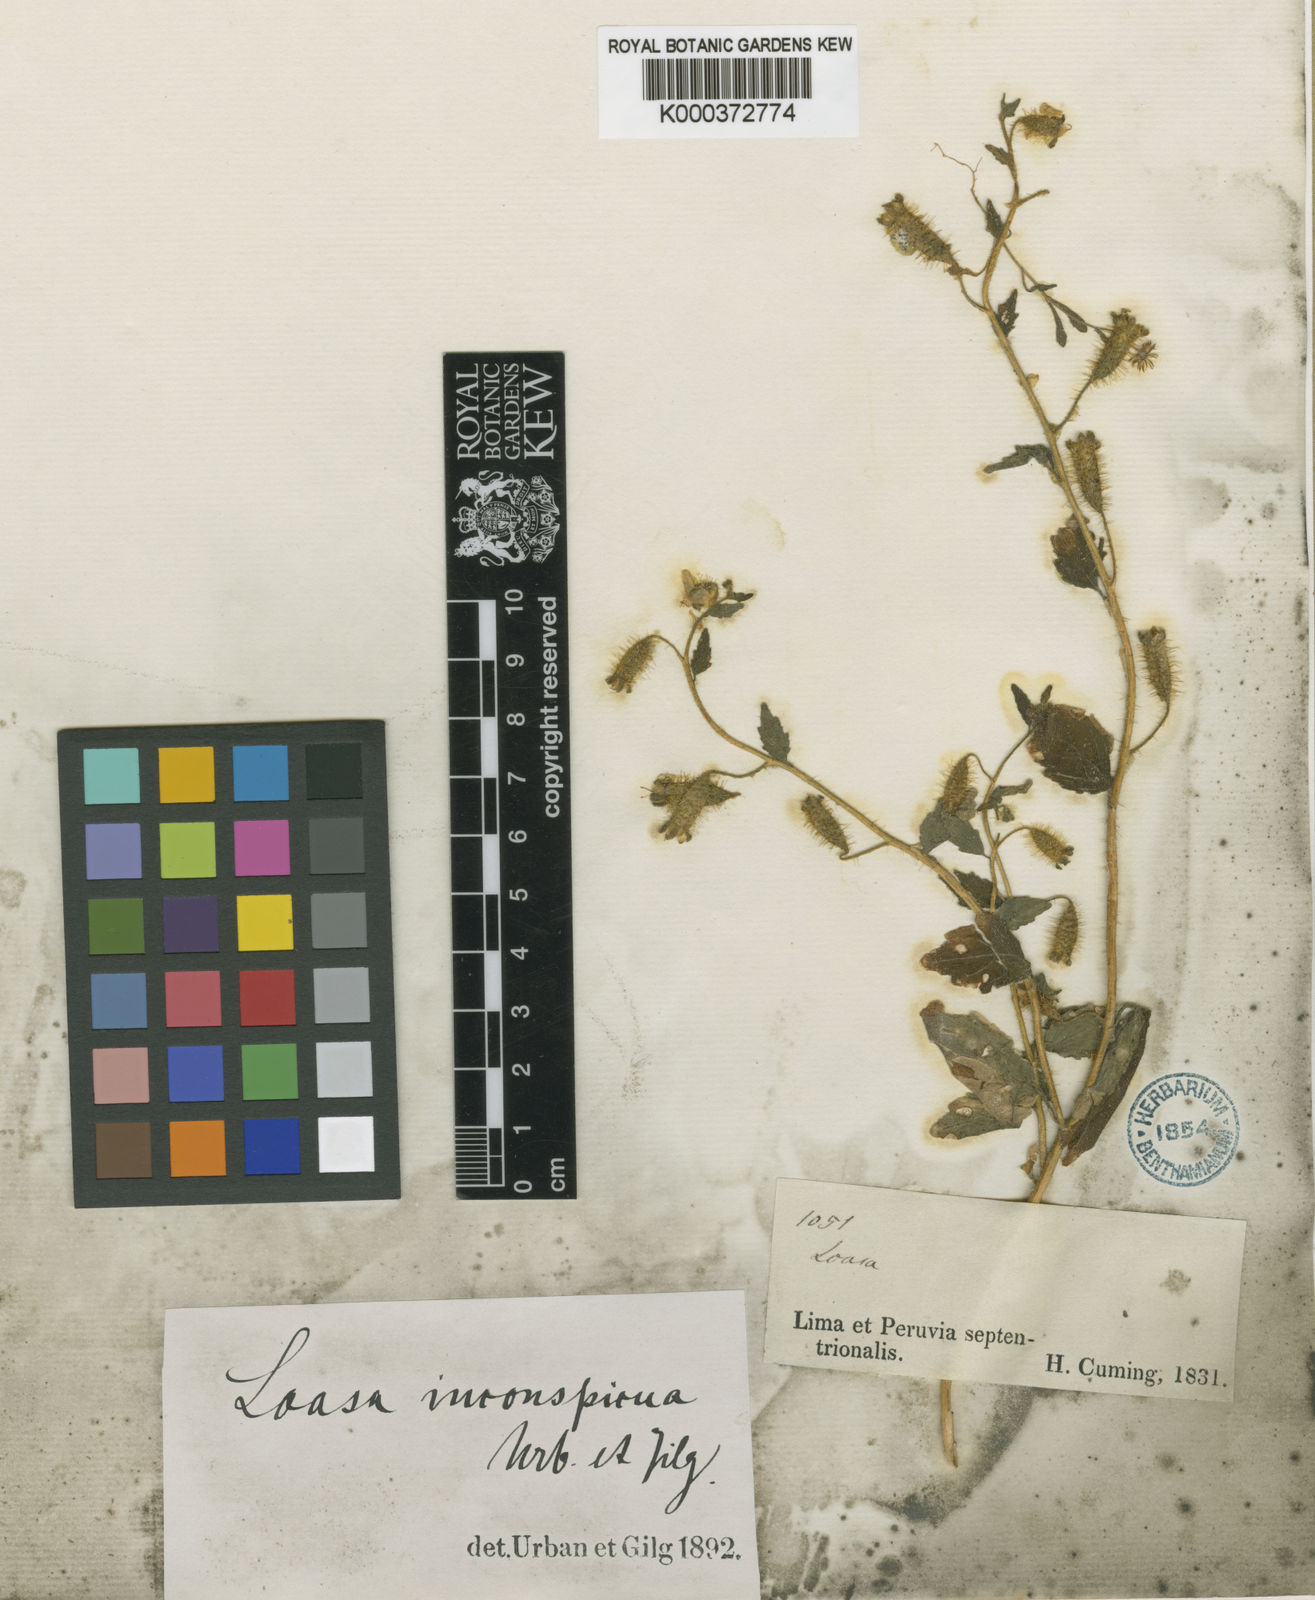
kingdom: Plantae
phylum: Tracheophyta
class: Magnoliopsida
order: Cornales
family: Loasaceae
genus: Nasa
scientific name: Nasa chenopodiifolia
